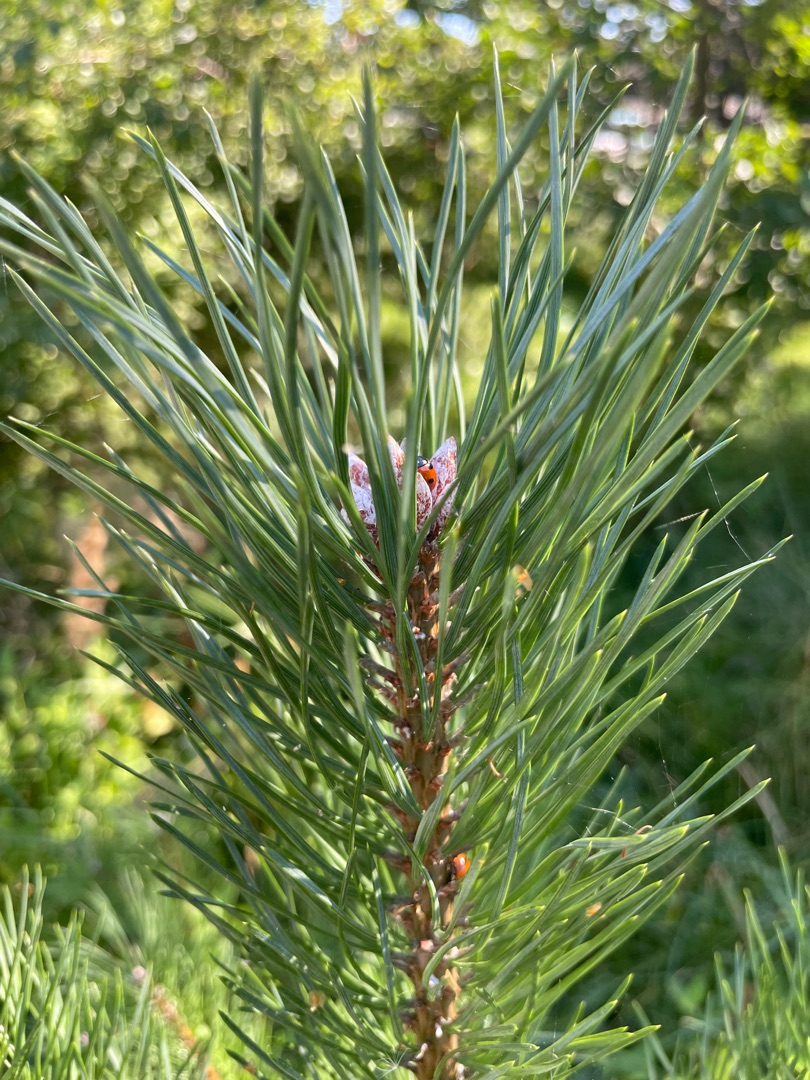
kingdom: Plantae
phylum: Tracheophyta
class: Pinopsida
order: Pinales
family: Pinaceae
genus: Pinus
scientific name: Pinus sylvestris
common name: Skov-fyr
